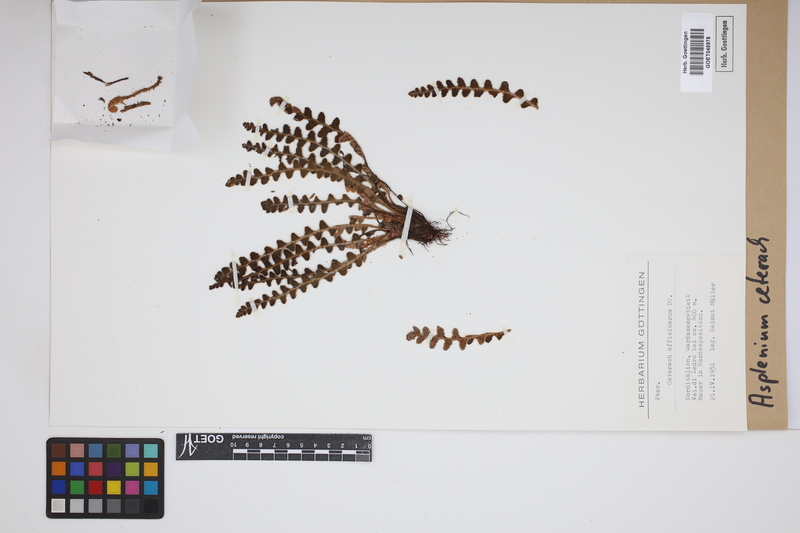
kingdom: Plantae
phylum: Tracheophyta
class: Polypodiopsida
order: Polypodiales
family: Aspleniaceae
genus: Asplenium
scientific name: Asplenium ceterach
